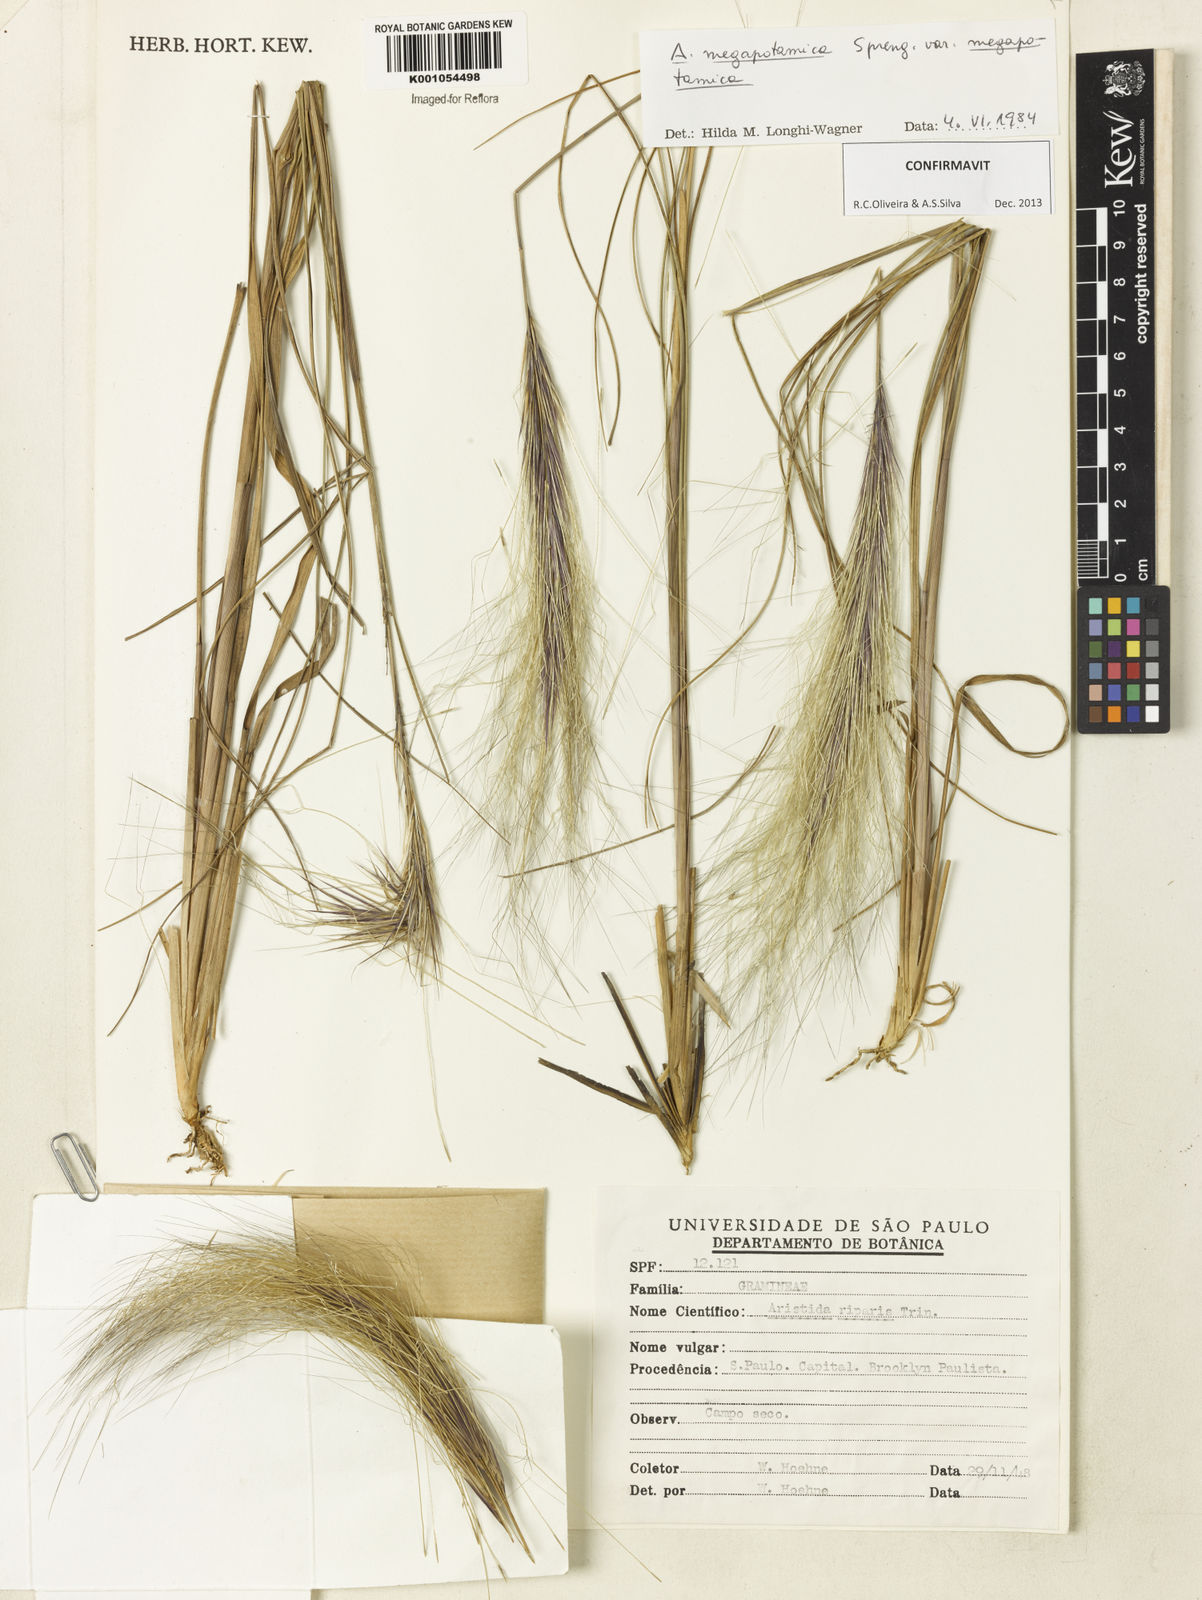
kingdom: Plantae
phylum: Tracheophyta
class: Liliopsida
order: Poales
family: Poaceae
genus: Aristida
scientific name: Aristida megapotamica
